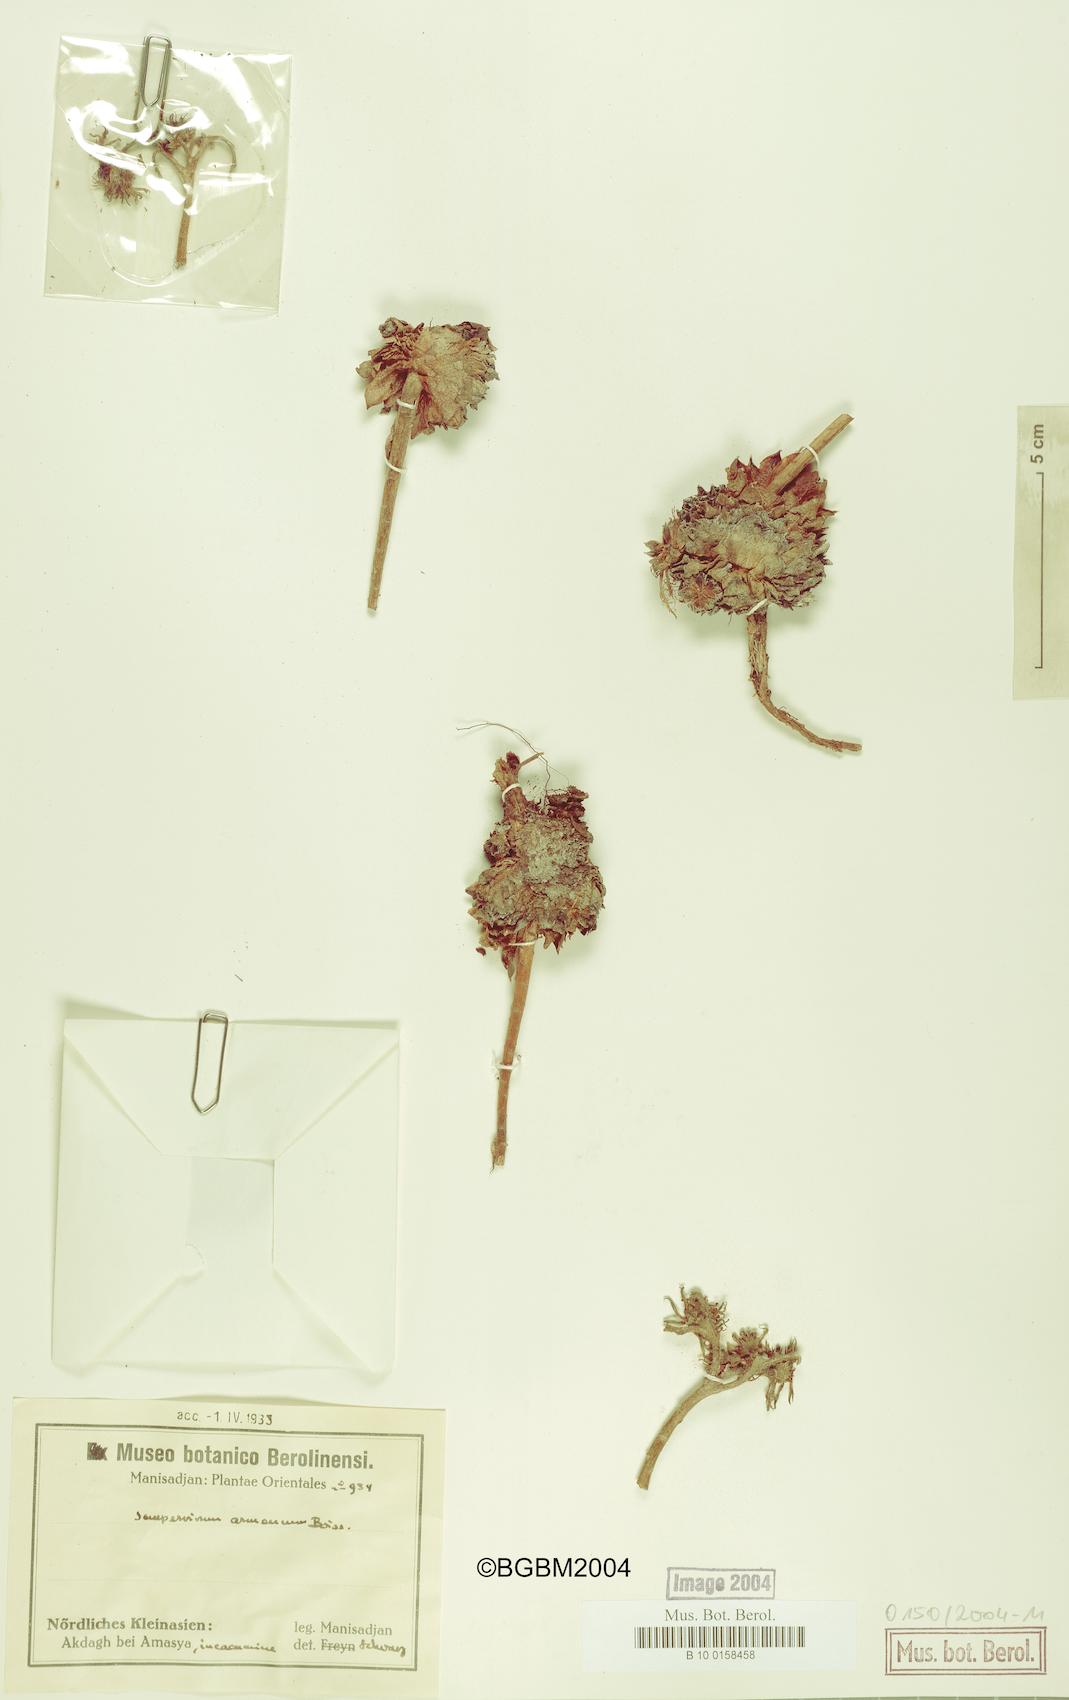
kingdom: Plantae
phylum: Tracheophyta
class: Magnoliopsida
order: Saxifragales
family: Crassulaceae
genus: Sempervivum
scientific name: Sempervivum armenum
